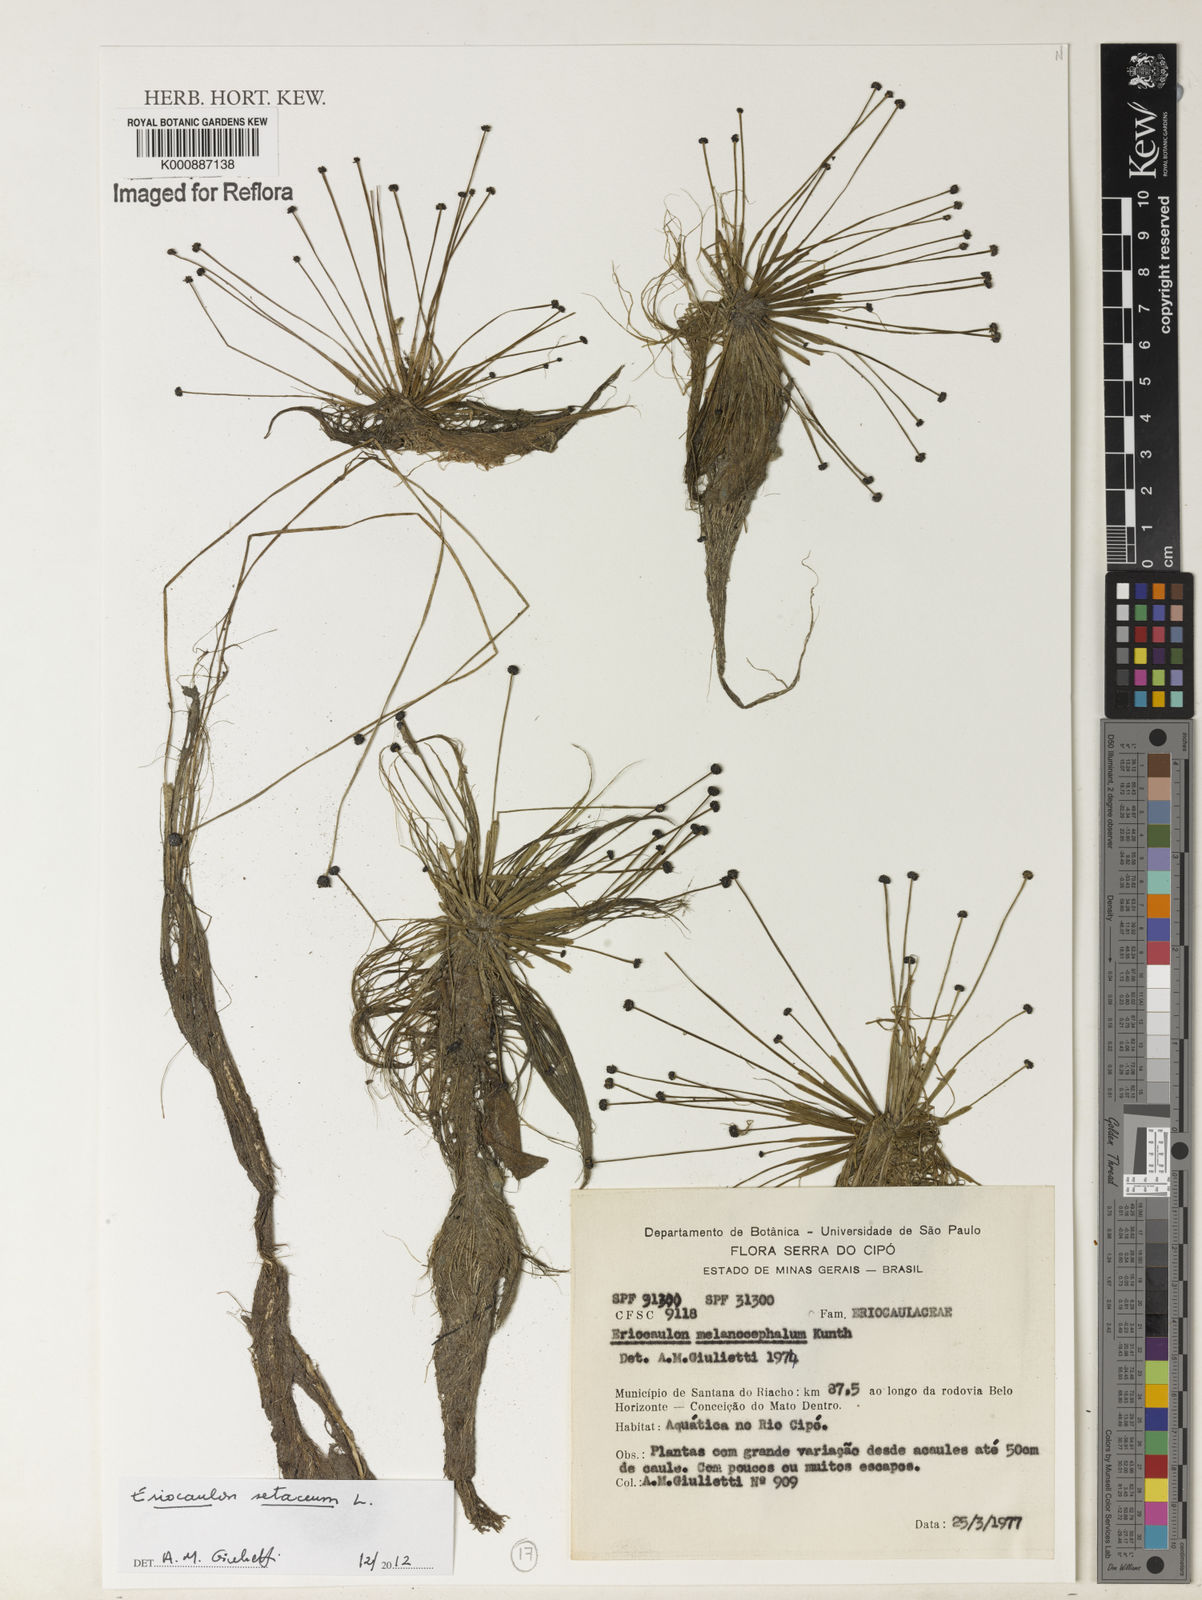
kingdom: Plantae
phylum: Tracheophyta
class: Liliopsida
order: Poales
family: Eriocaulaceae
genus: Eriocaulon
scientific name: Eriocaulon setaceum
